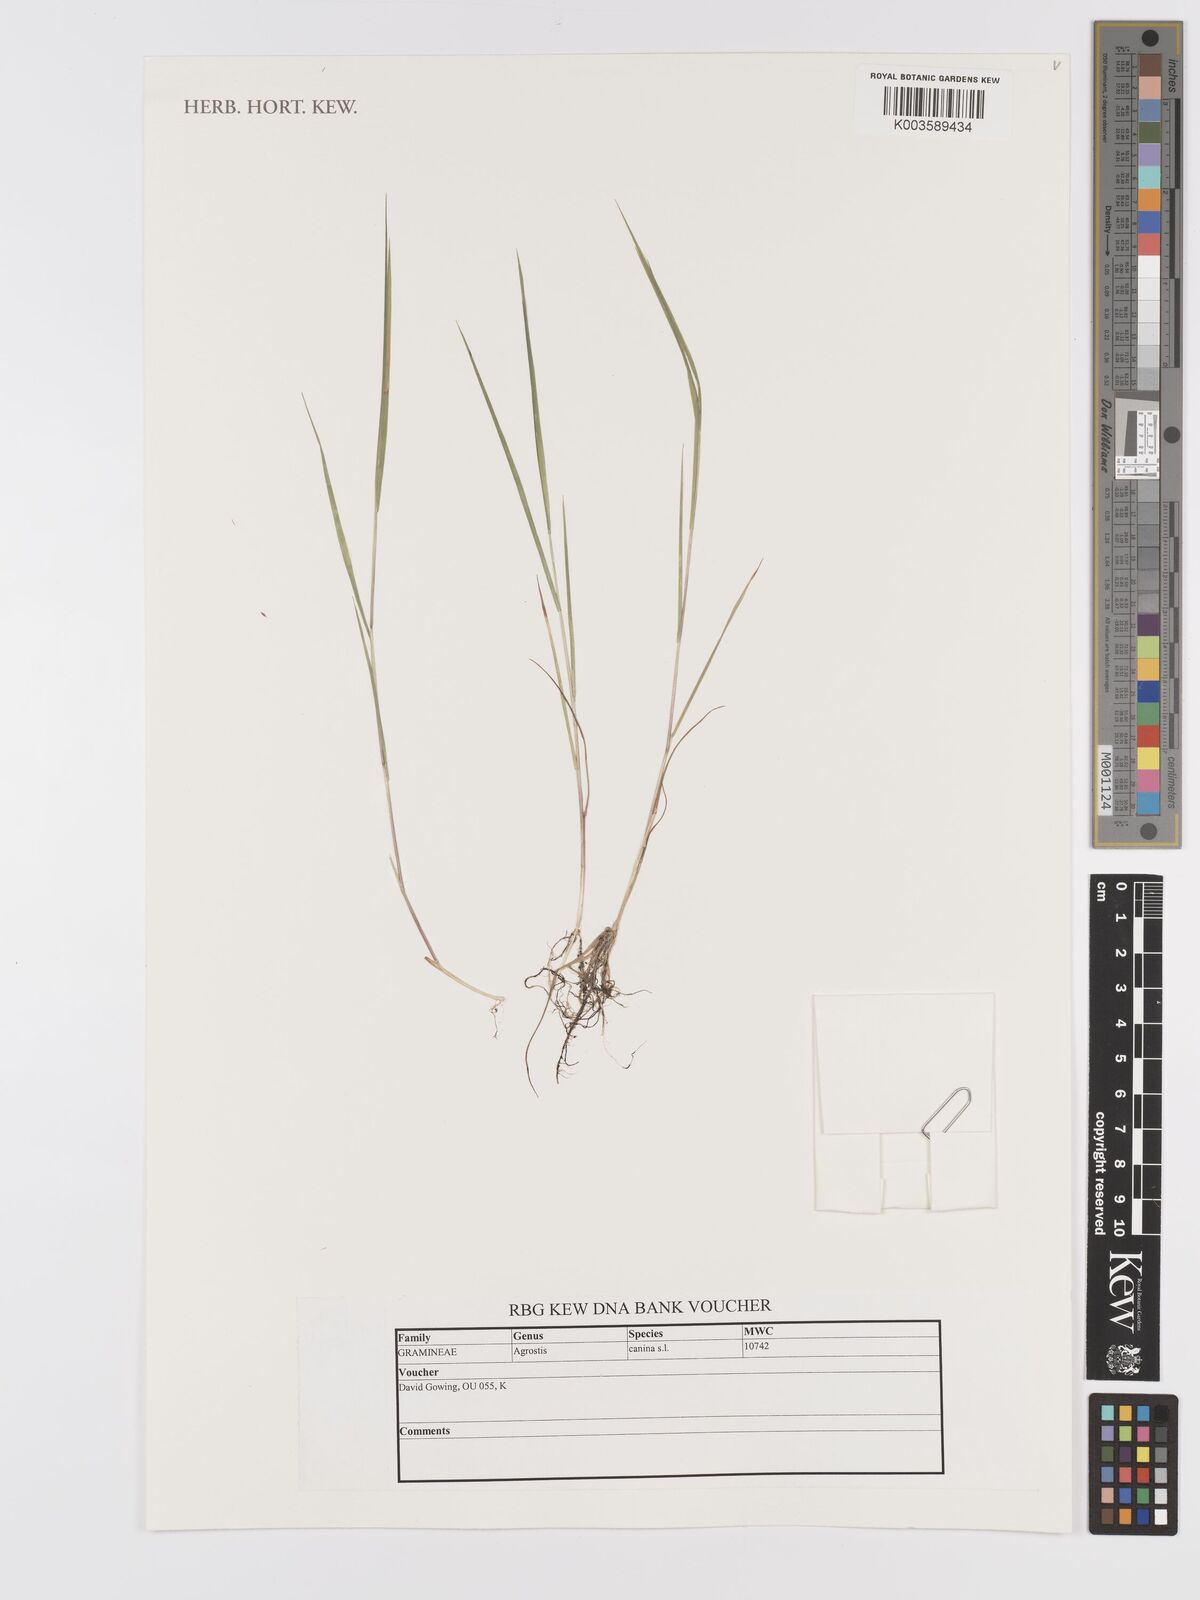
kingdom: Plantae
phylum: Tracheophyta
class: Liliopsida
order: Poales
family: Poaceae
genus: Agrostis
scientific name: Agrostis canina
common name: Velvet bent
